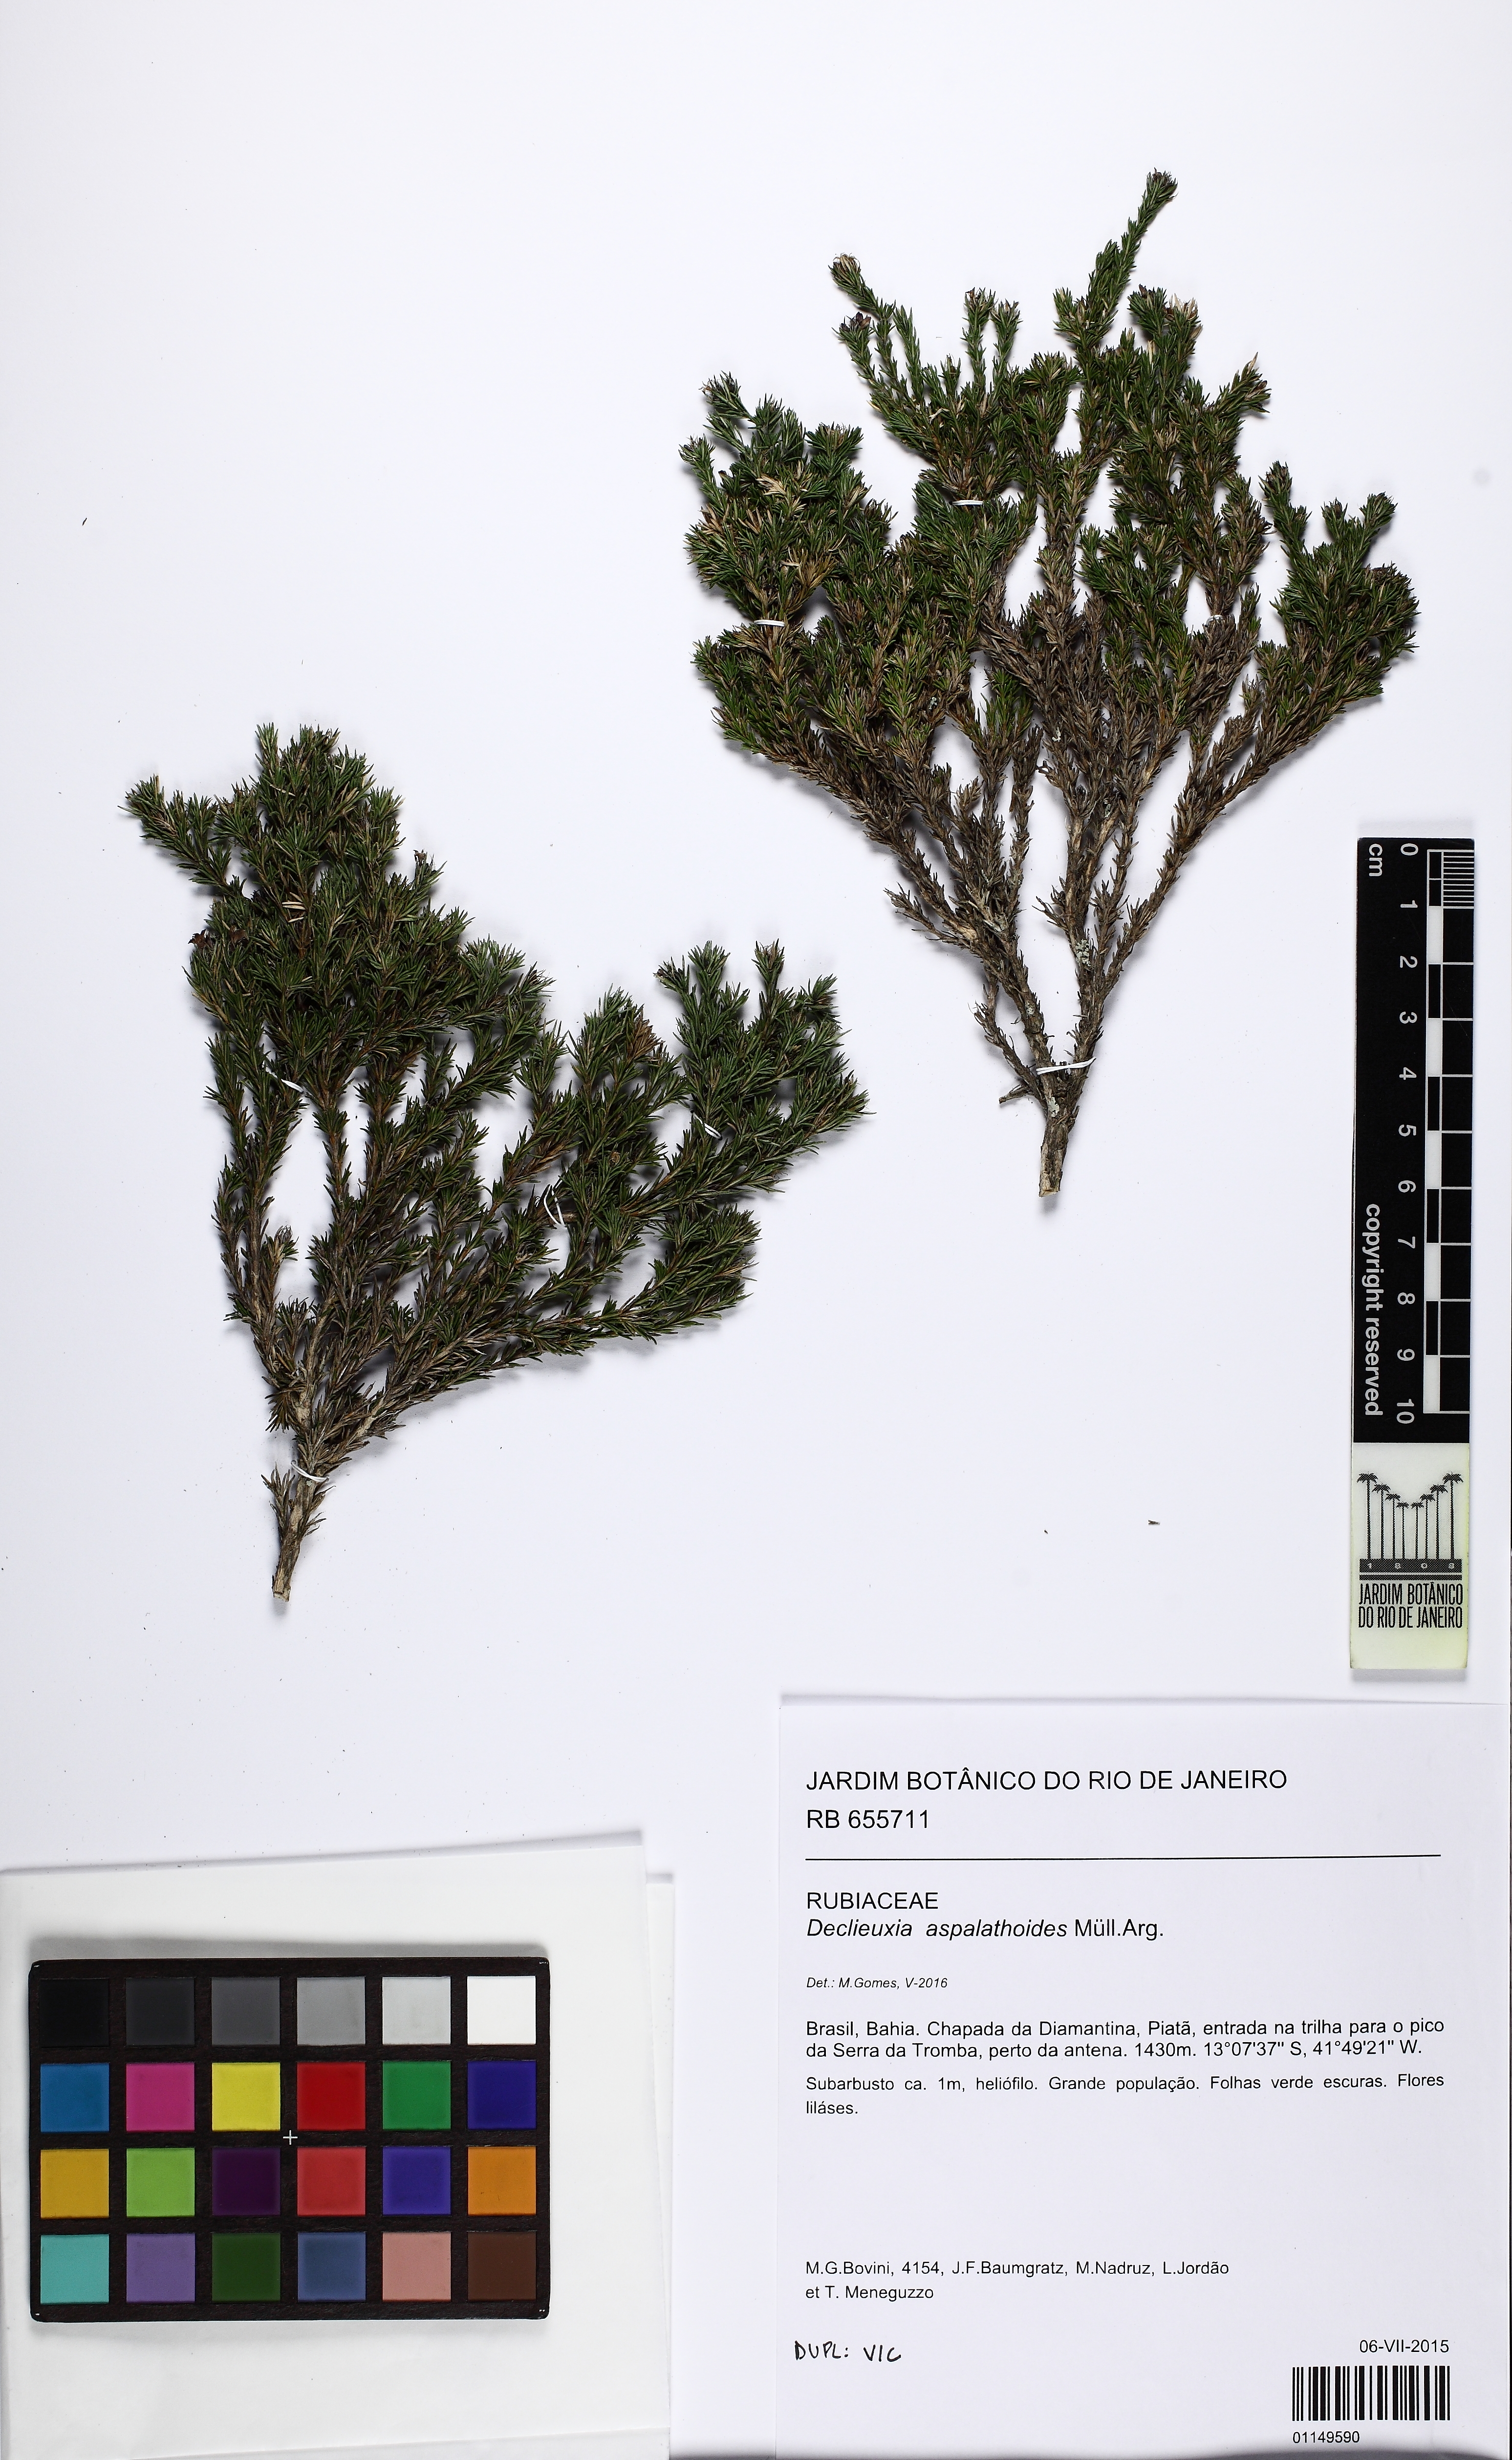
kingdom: Plantae
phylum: Tracheophyta
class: Magnoliopsida
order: Gentianales
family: Rubiaceae
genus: Declieuxia
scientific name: Declieuxia aspalathoides
